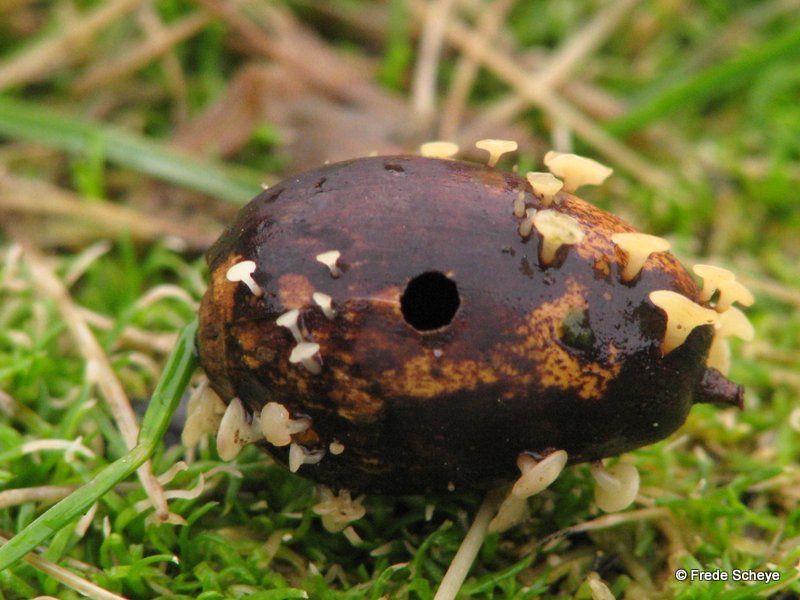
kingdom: Fungi
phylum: Ascomycota
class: Leotiomycetes
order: Helotiales
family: Helotiaceae
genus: Hymenoscyphus
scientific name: Hymenoscyphus fructigenus
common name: frugt-stilkskive
